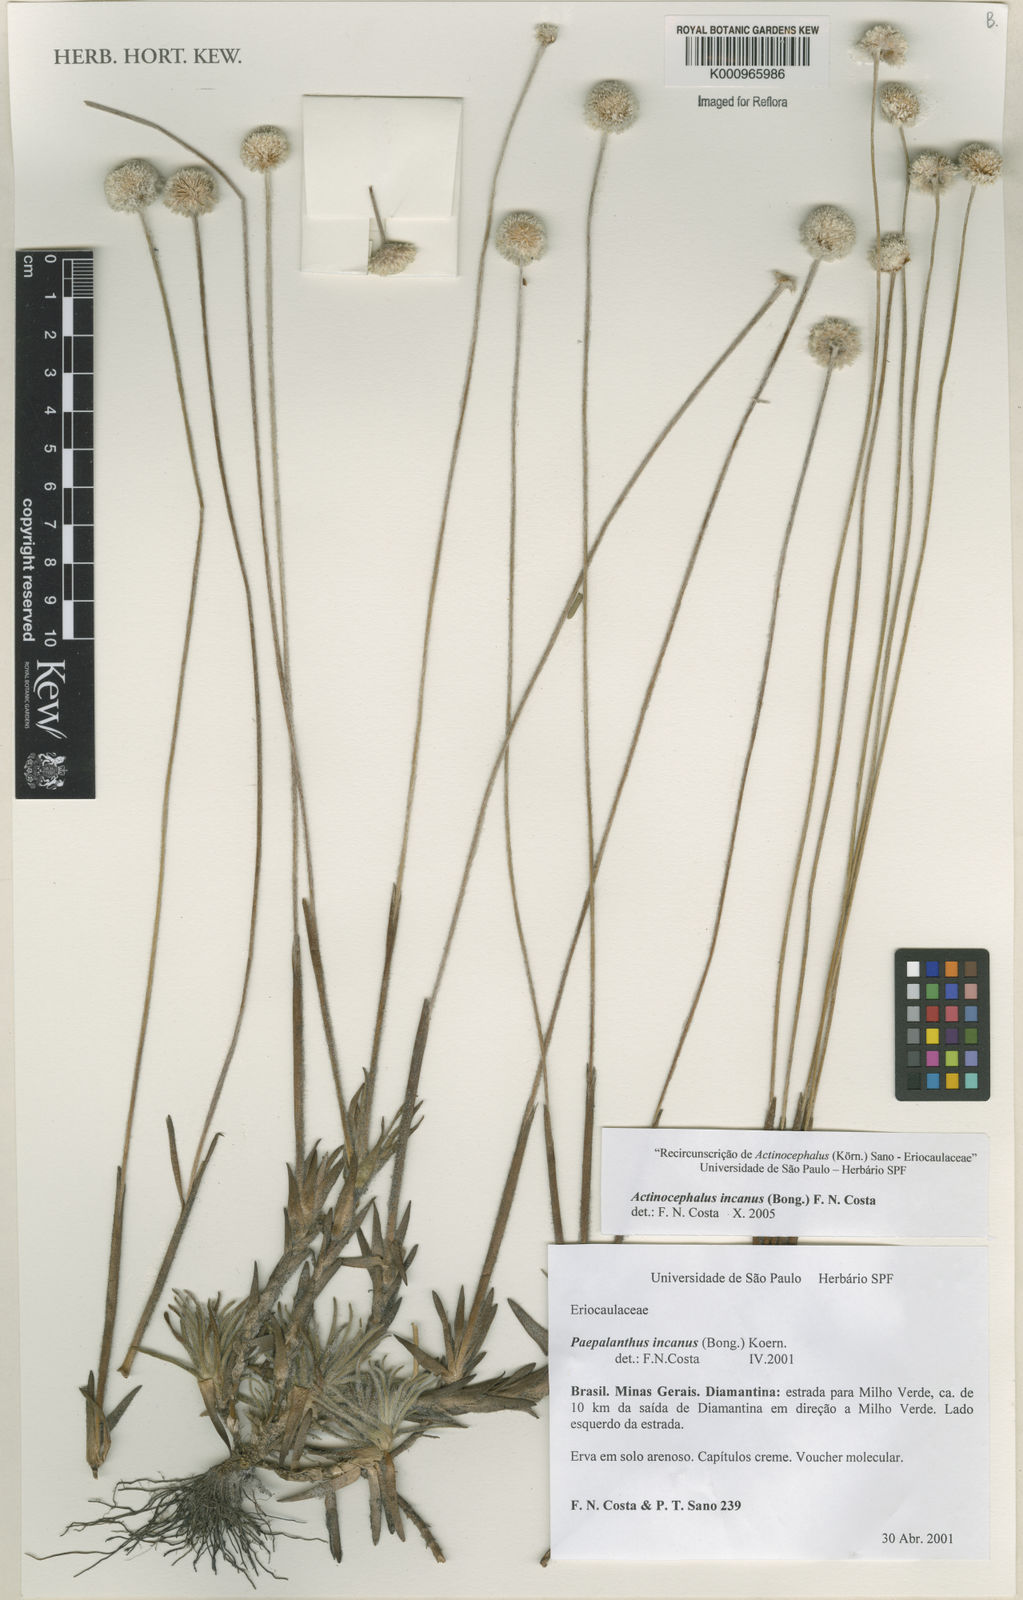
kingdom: Plantae
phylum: Tracheophyta
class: Liliopsida
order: Poales
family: Eriocaulaceae
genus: Paepalanthus
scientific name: Paepalanthus
